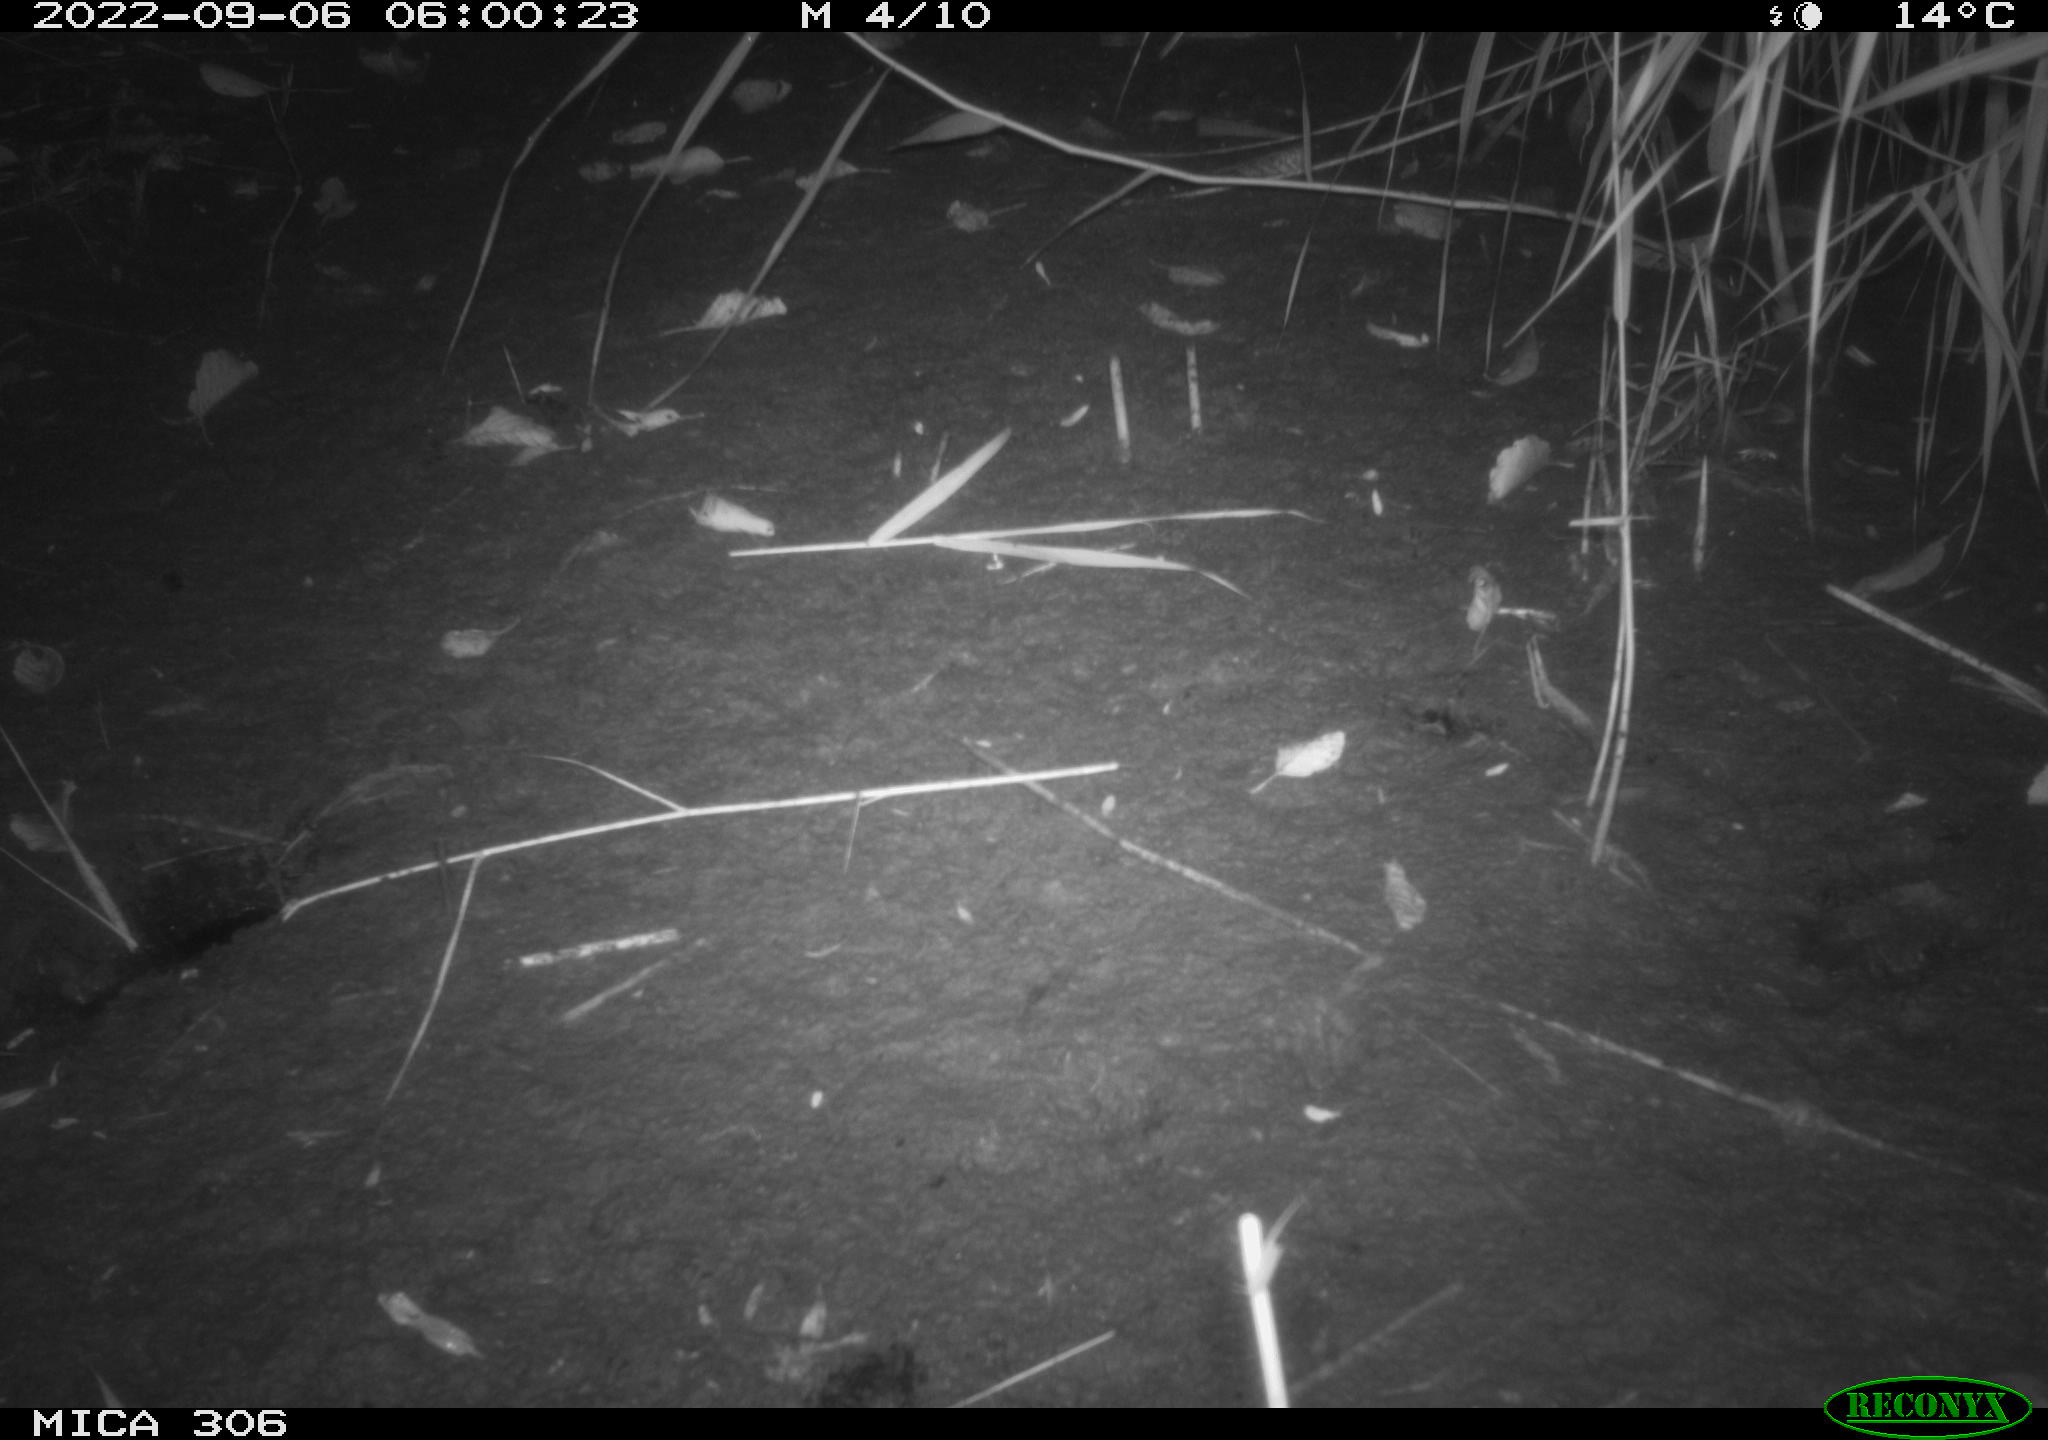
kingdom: Animalia
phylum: Chordata
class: Mammalia
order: Rodentia
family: Muridae
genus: Rattus
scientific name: Rattus norvegicus
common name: Brown rat
